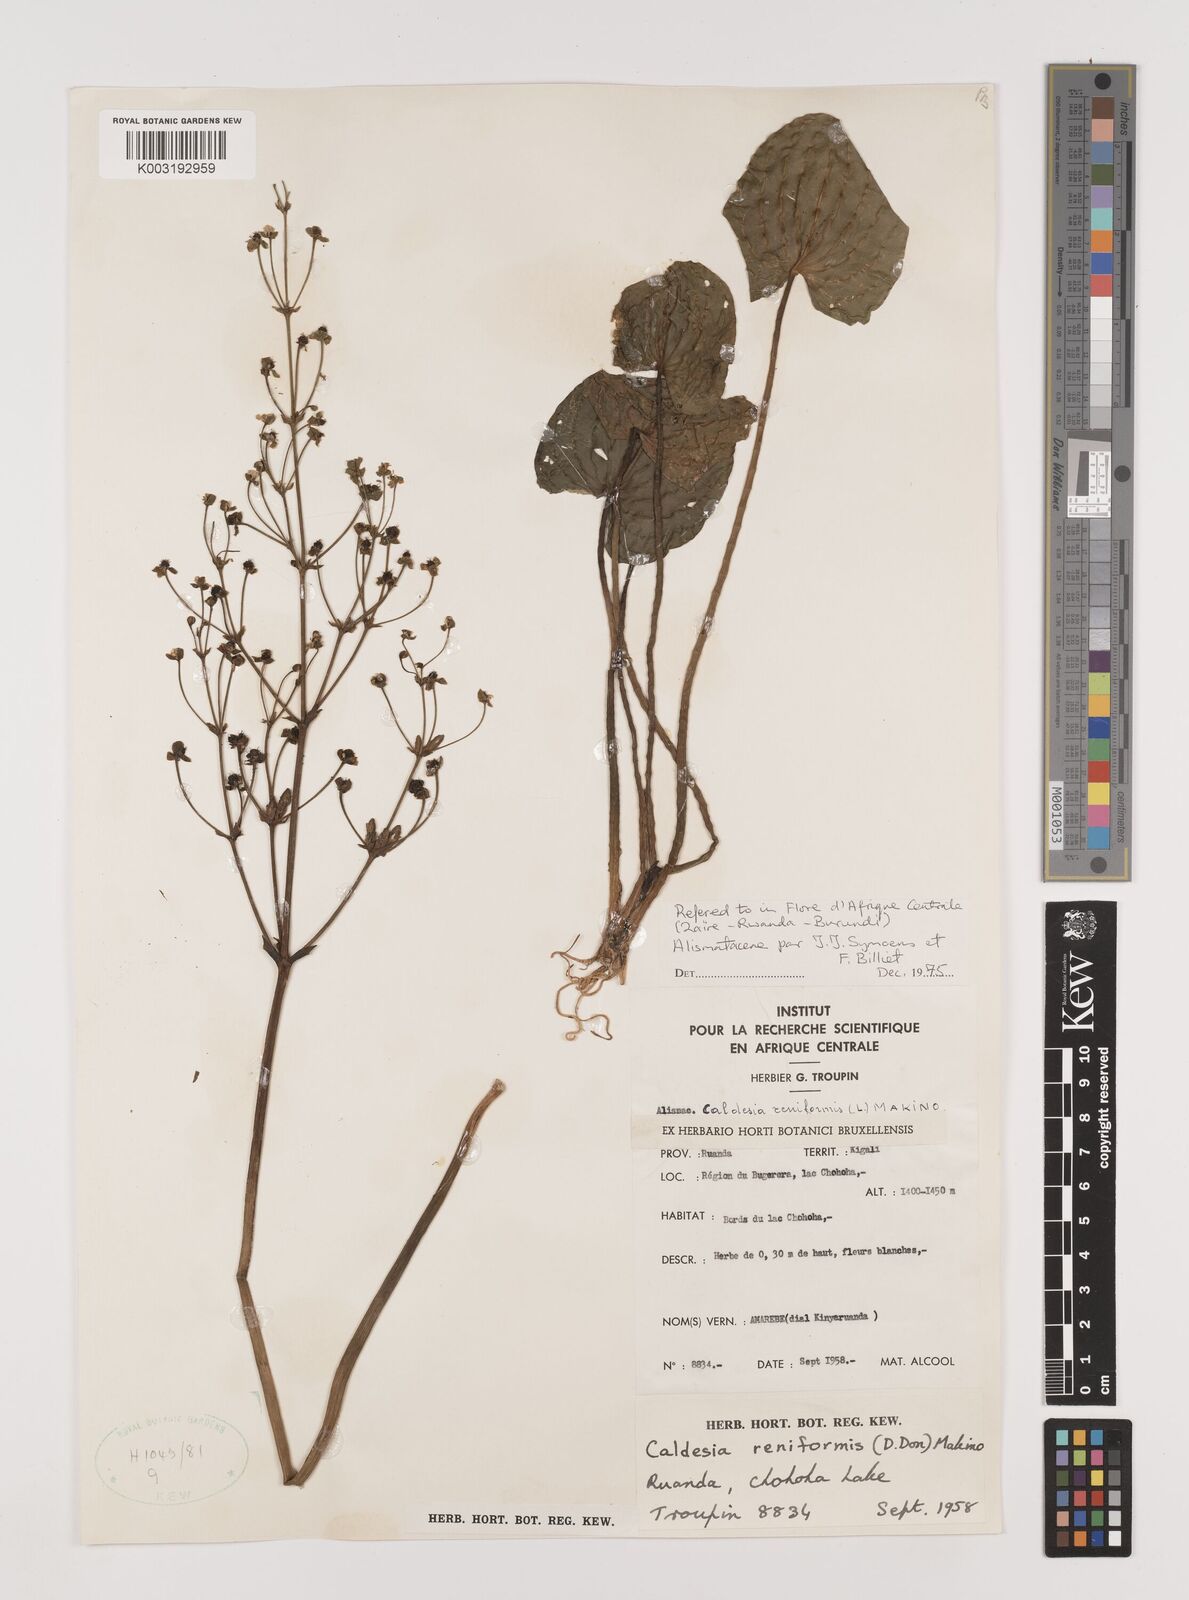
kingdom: Plantae
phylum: Tracheophyta
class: Liliopsida
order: Alismatales
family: Alismataceae
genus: Caldesia
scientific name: Caldesia parnassifolia
